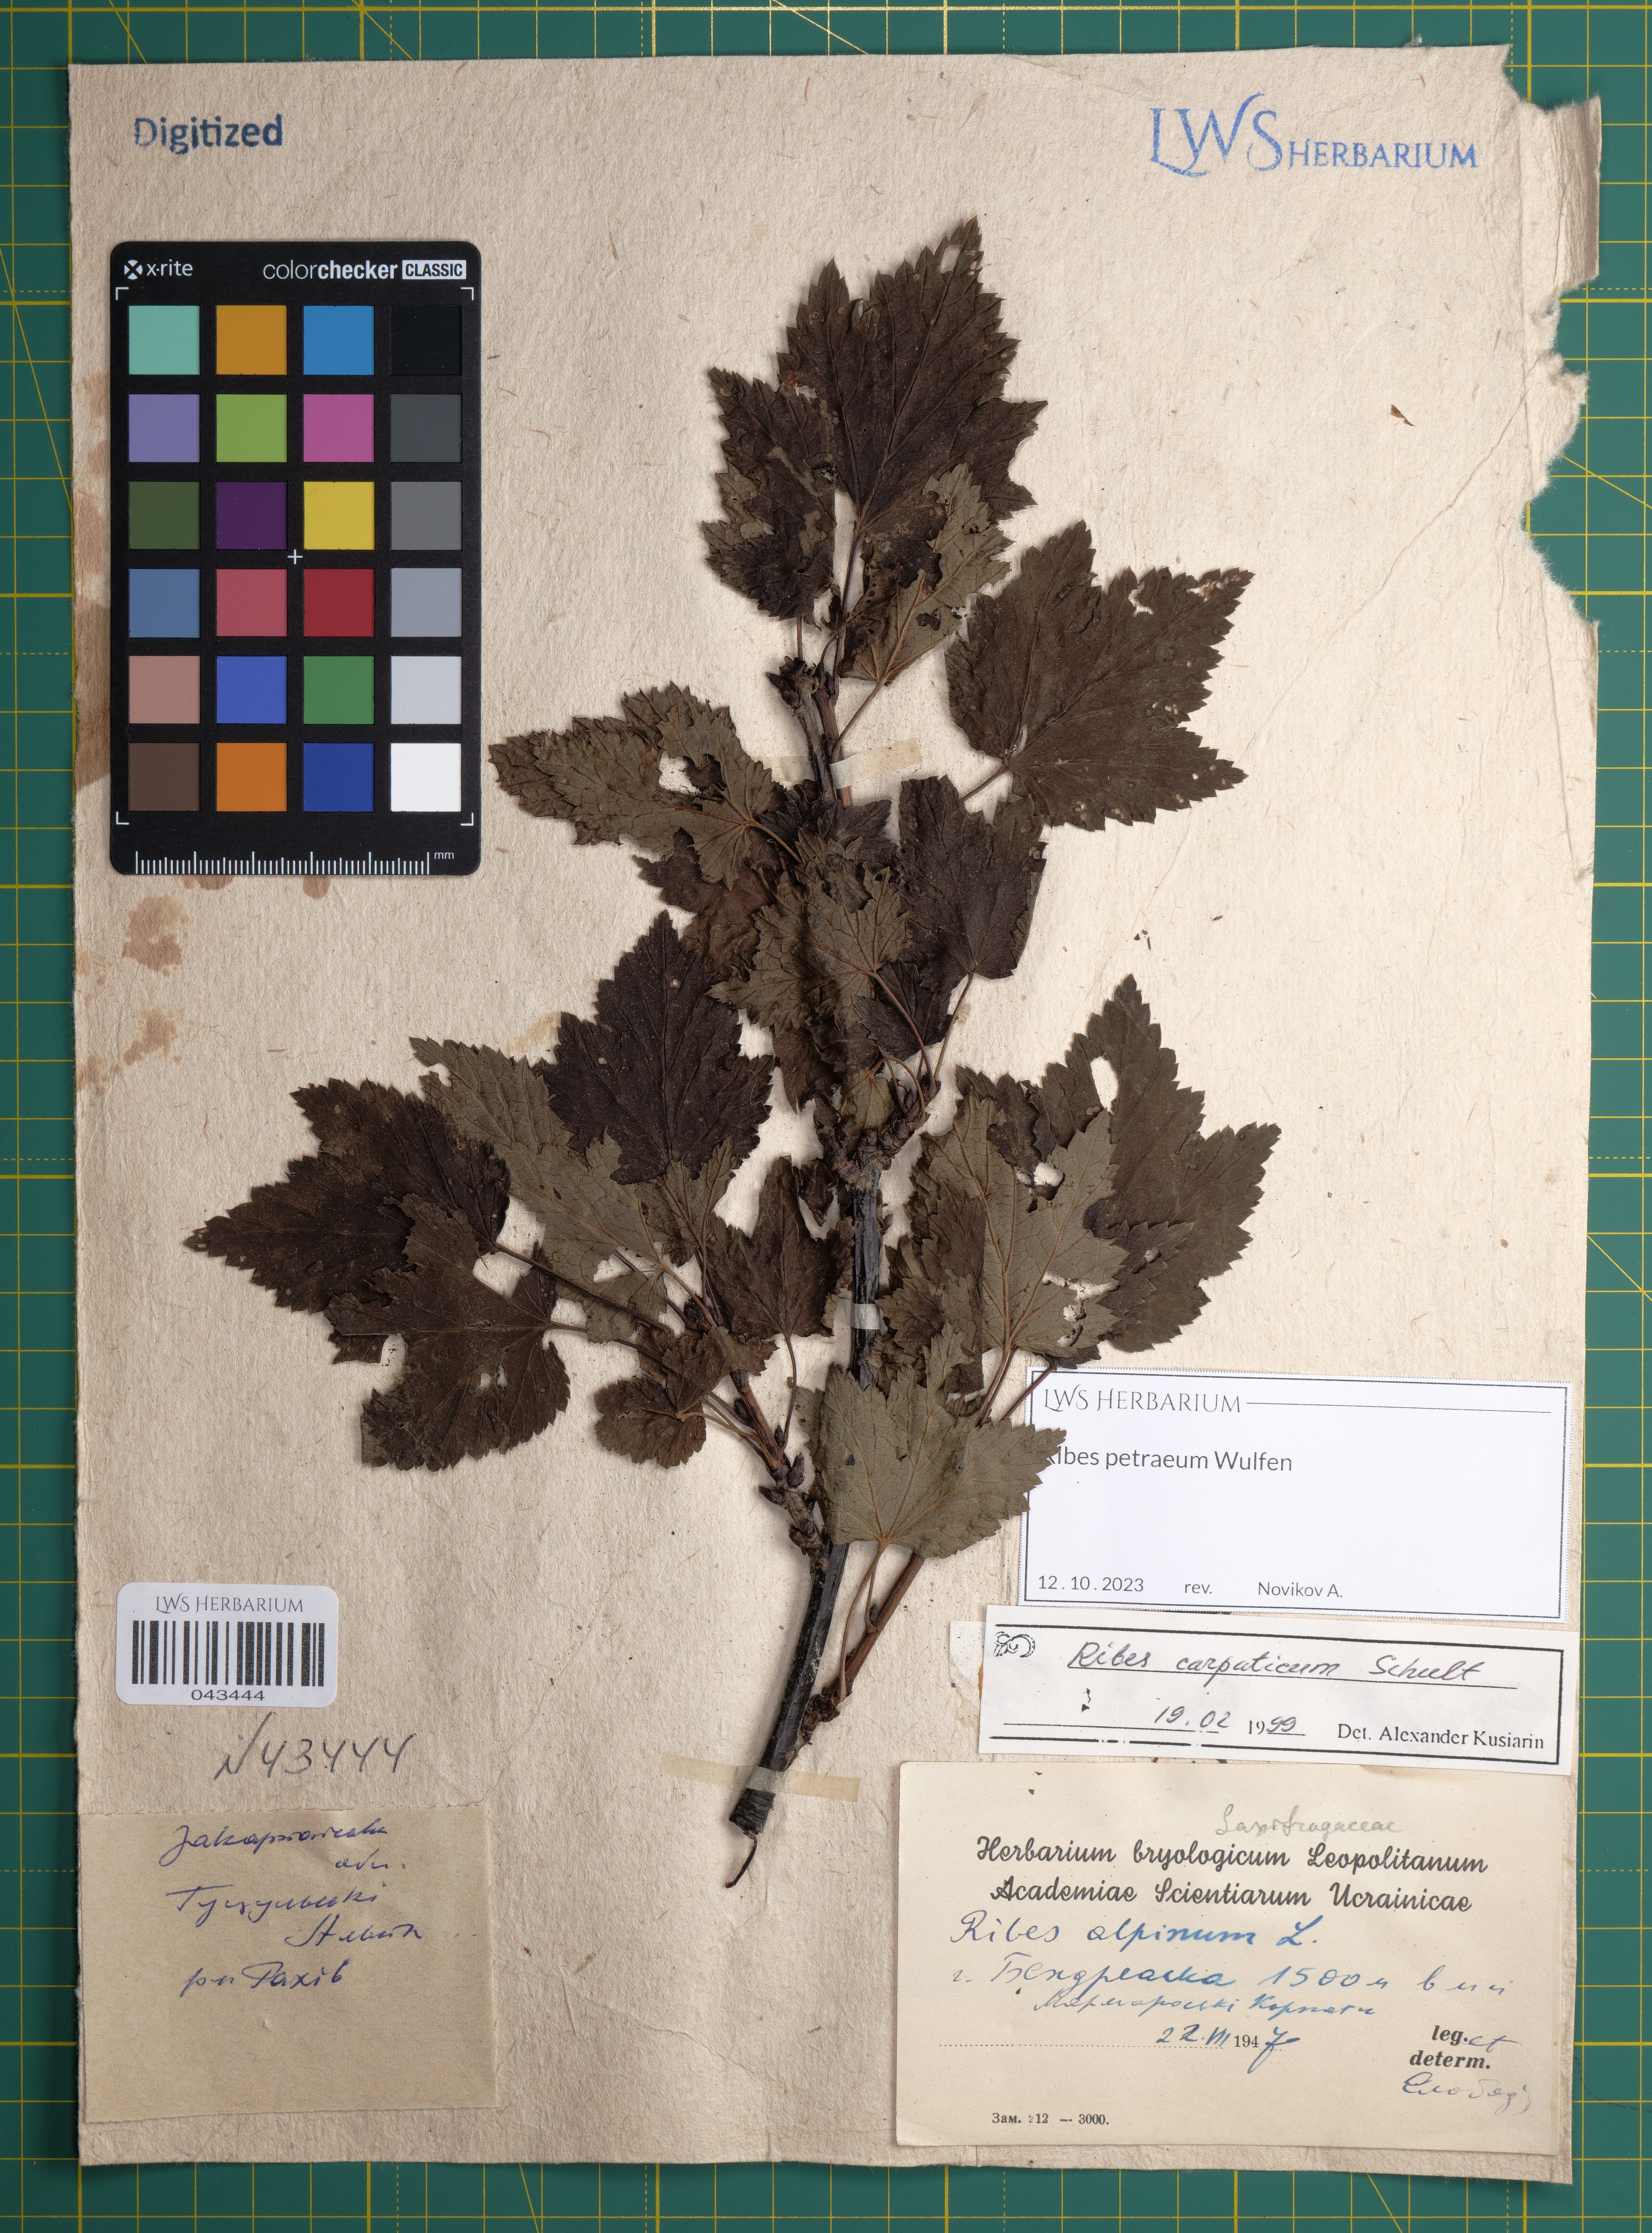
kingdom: Plantae
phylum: Tracheophyta
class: Magnoliopsida
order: Saxifragales
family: Grossulariaceae
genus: Ribes
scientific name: Ribes petraeum
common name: Rock currant
